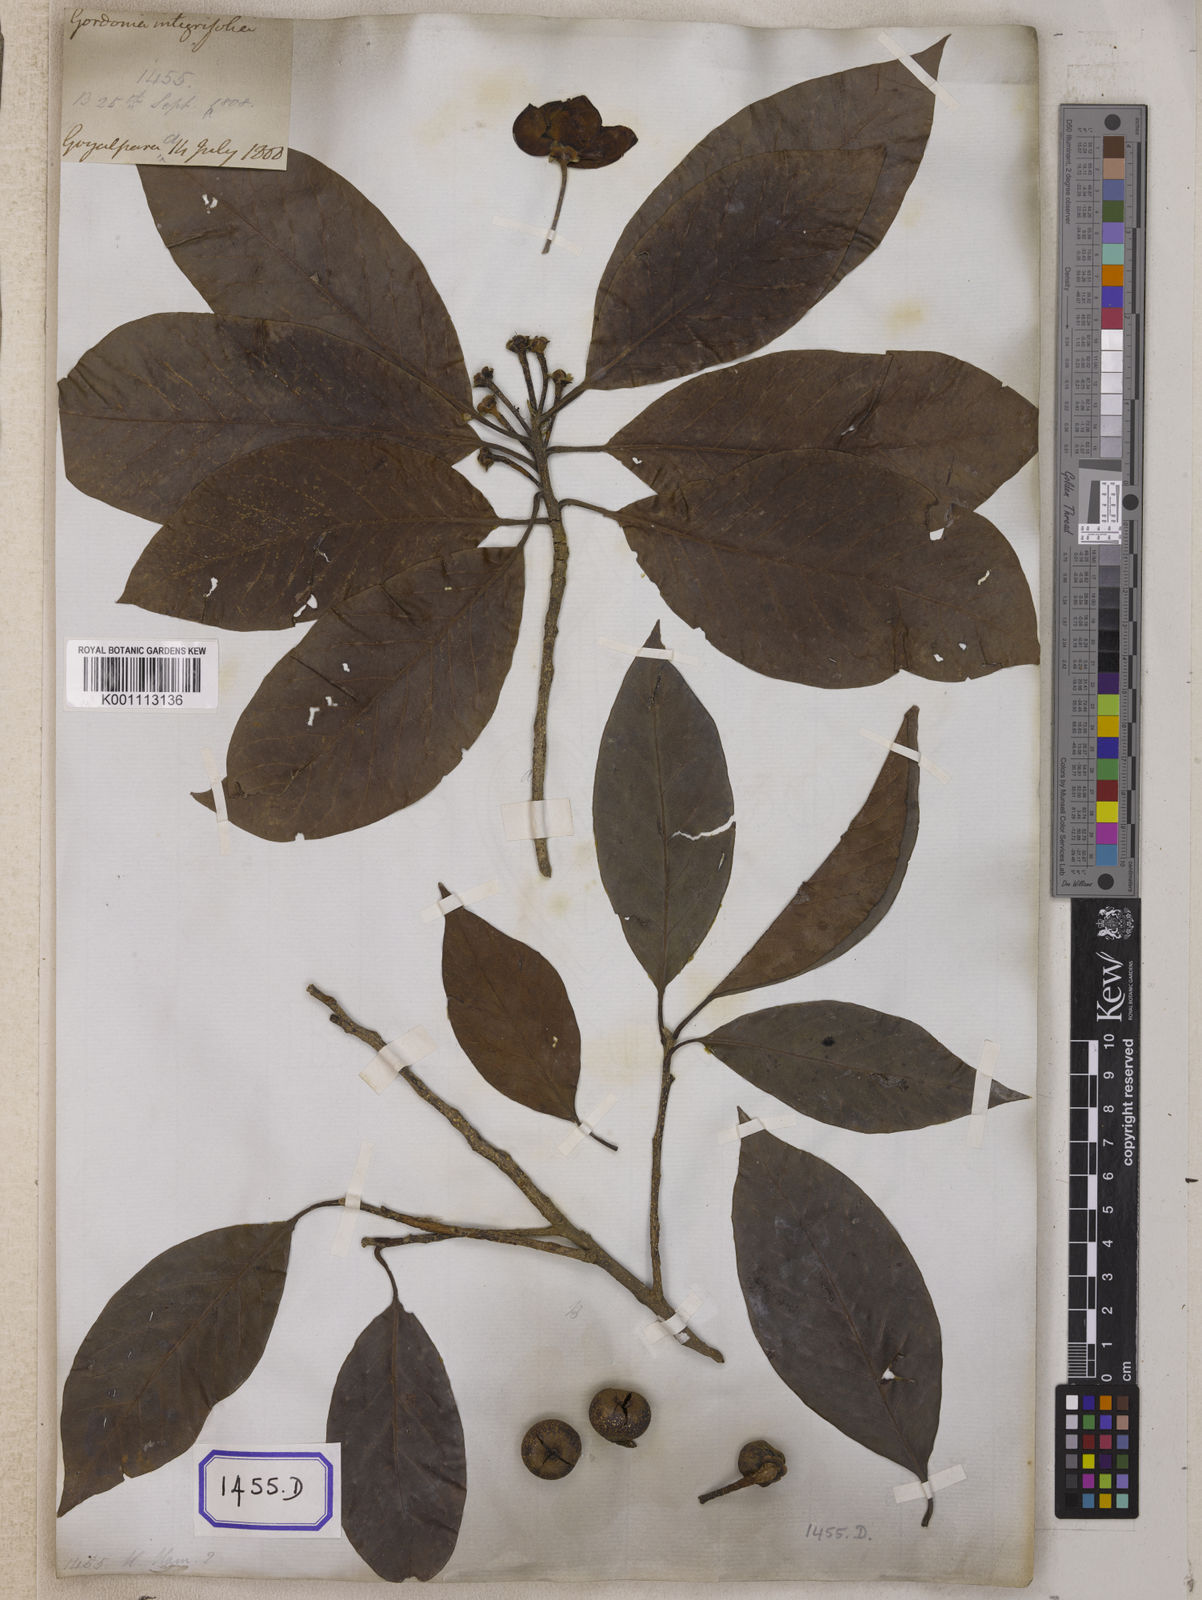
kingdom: Plantae
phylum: Tracheophyta
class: Magnoliopsida
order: Ericales
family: Theaceae
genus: Schima
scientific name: Schima wallichii
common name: Schima
